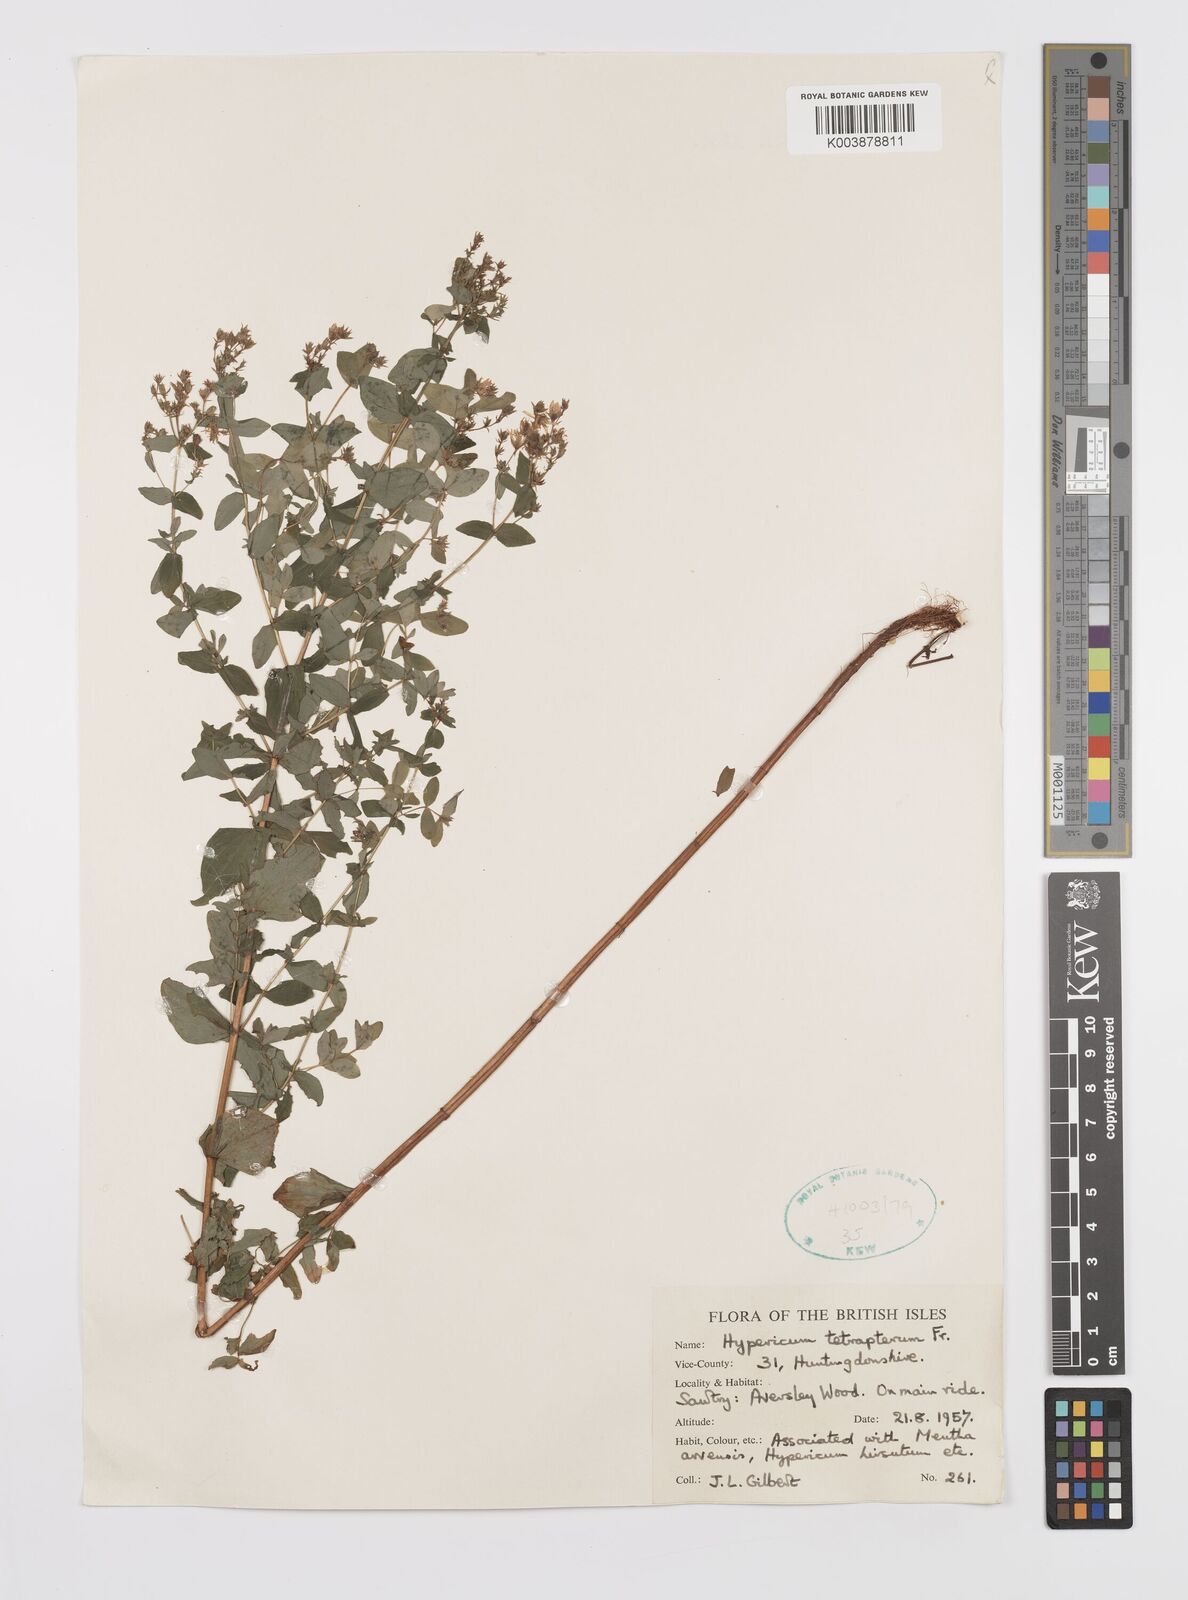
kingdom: Plantae
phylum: Tracheophyta
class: Magnoliopsida
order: Malpighiales
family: Hypericaceae
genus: Hypericum
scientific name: Hypericum tetrapterum
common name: Square-stalked st. john's-wort
